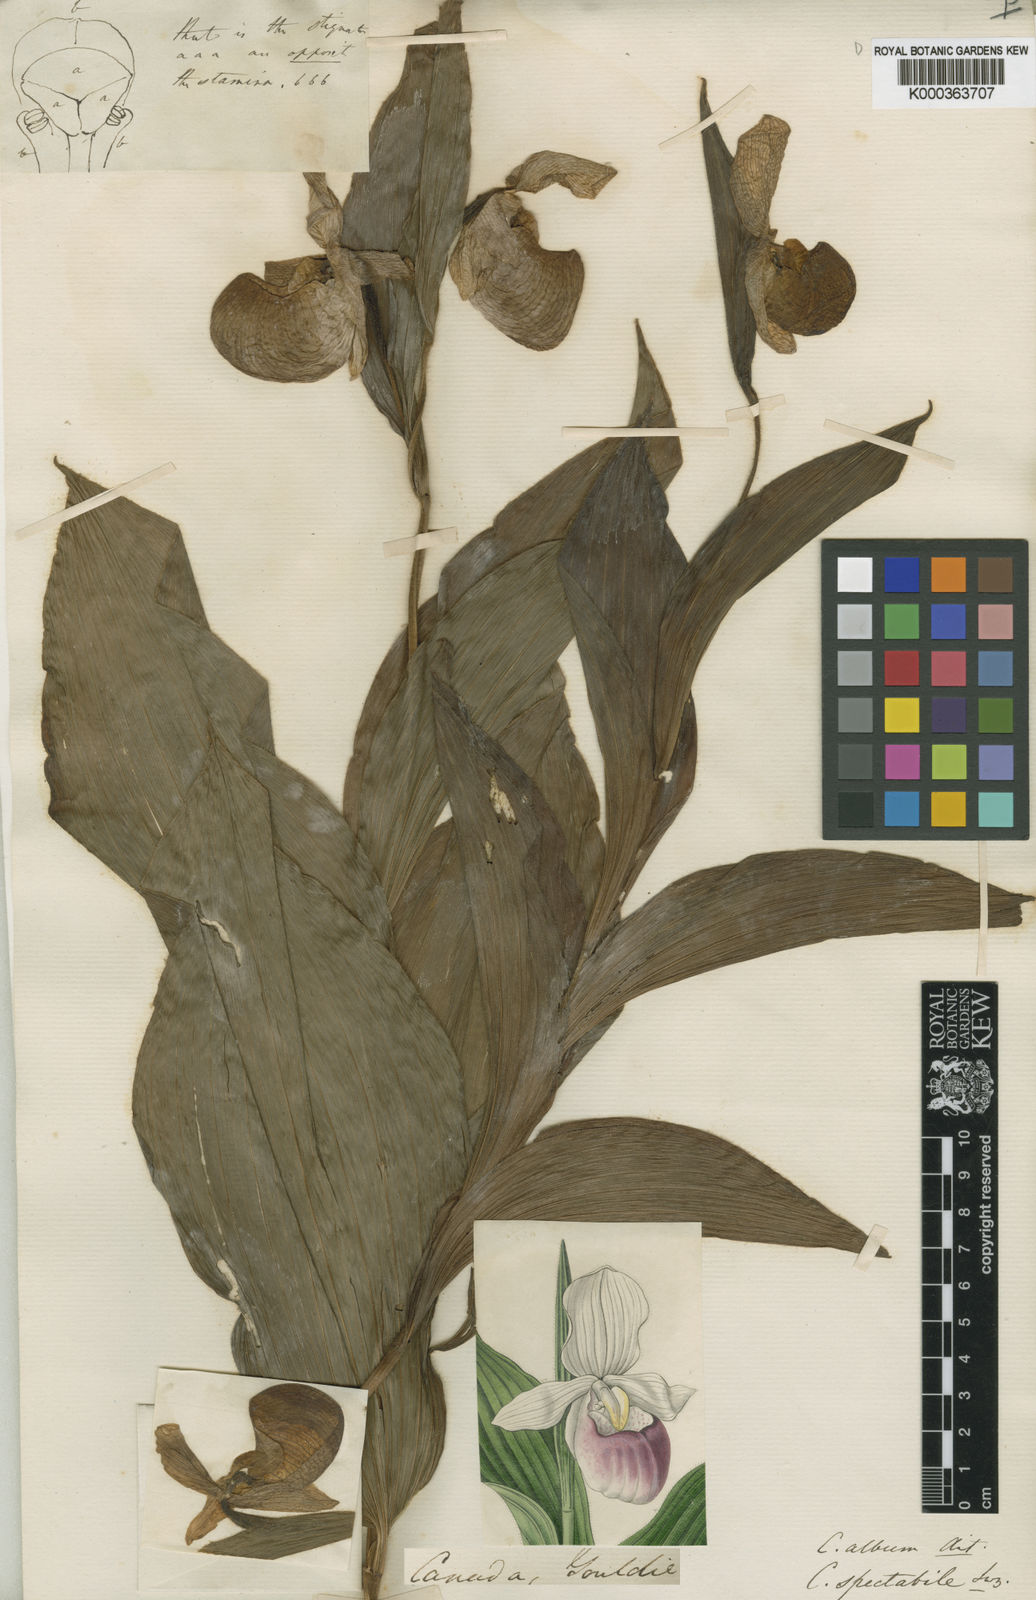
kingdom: Plantae
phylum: Tracheophyta
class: Liliopsida
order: Asparagales
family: Orchidaceae
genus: Cypripedium
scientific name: Cypripedium reginae
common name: Queen lady's-slipper
